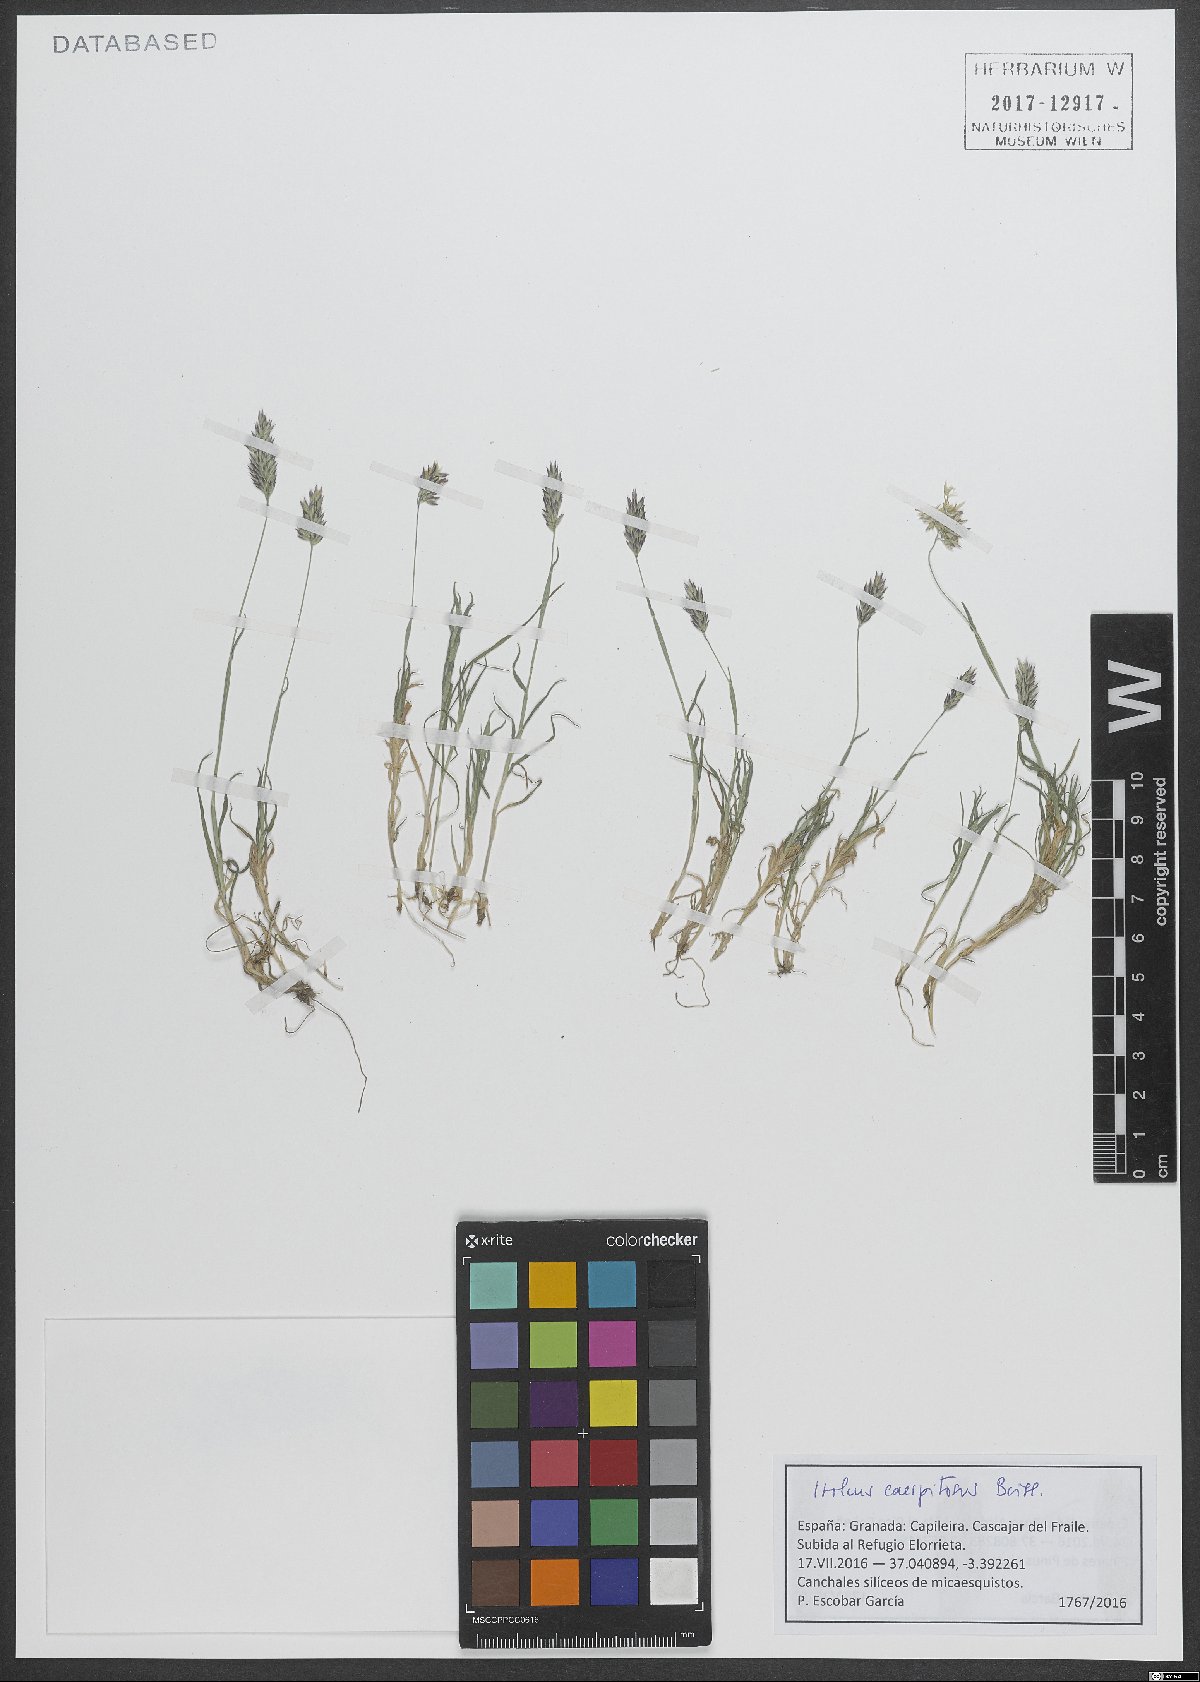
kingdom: Plantae
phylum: Tracheophyta
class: Liliopsida
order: Poales
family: Poaceae
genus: Holcus
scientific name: Holcus caespitosus
